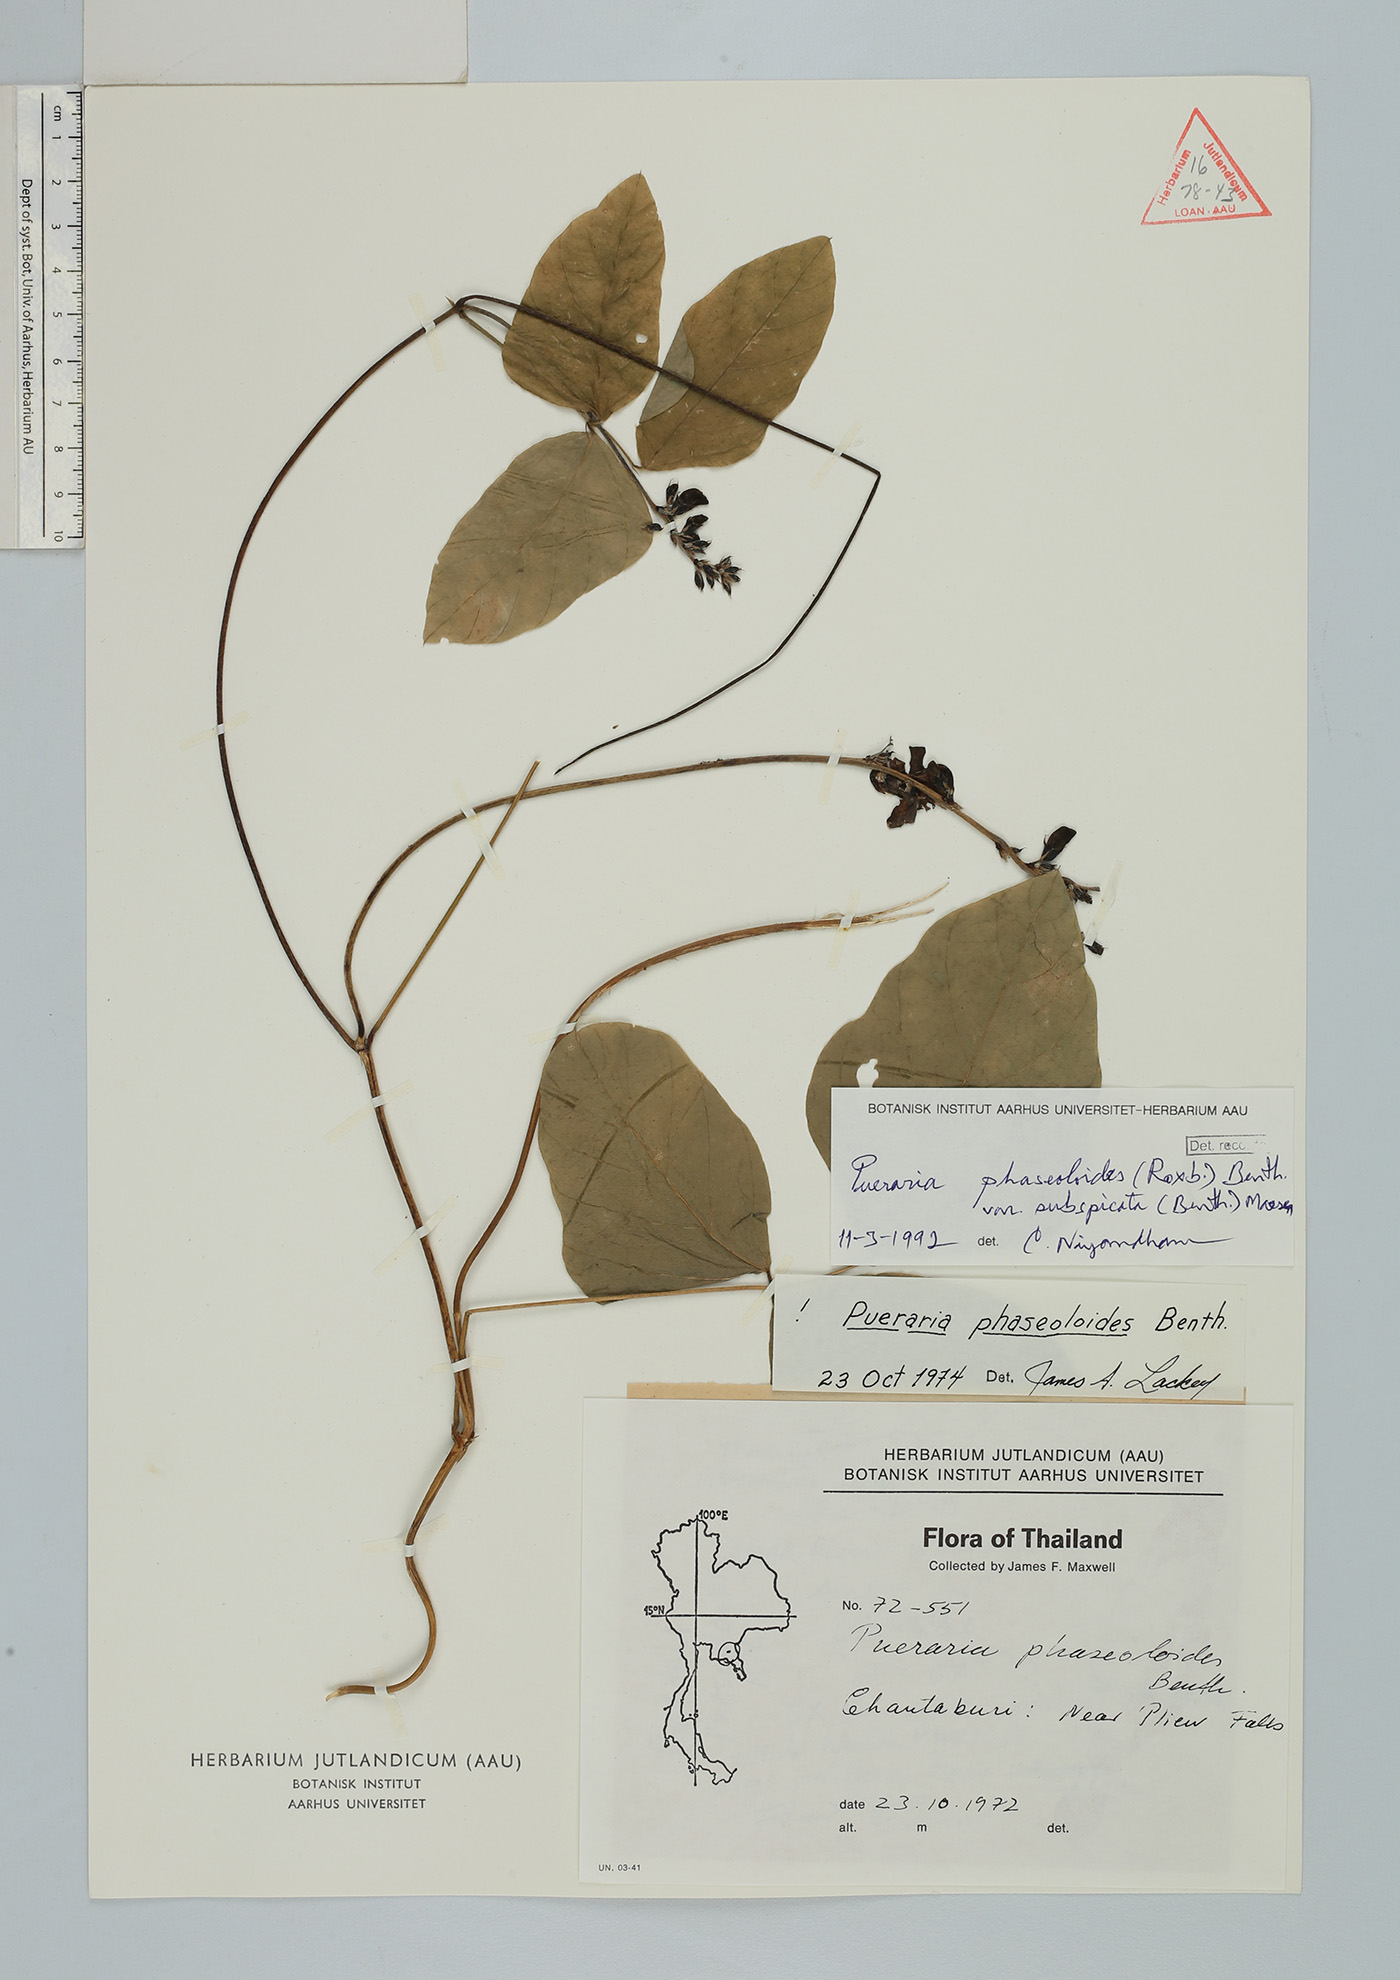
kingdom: Plantae
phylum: Tracheophyta
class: Magnoliopsida
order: Fabales
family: Fabaceae
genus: Neustanthus
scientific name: Neustanthus phaseoloides
